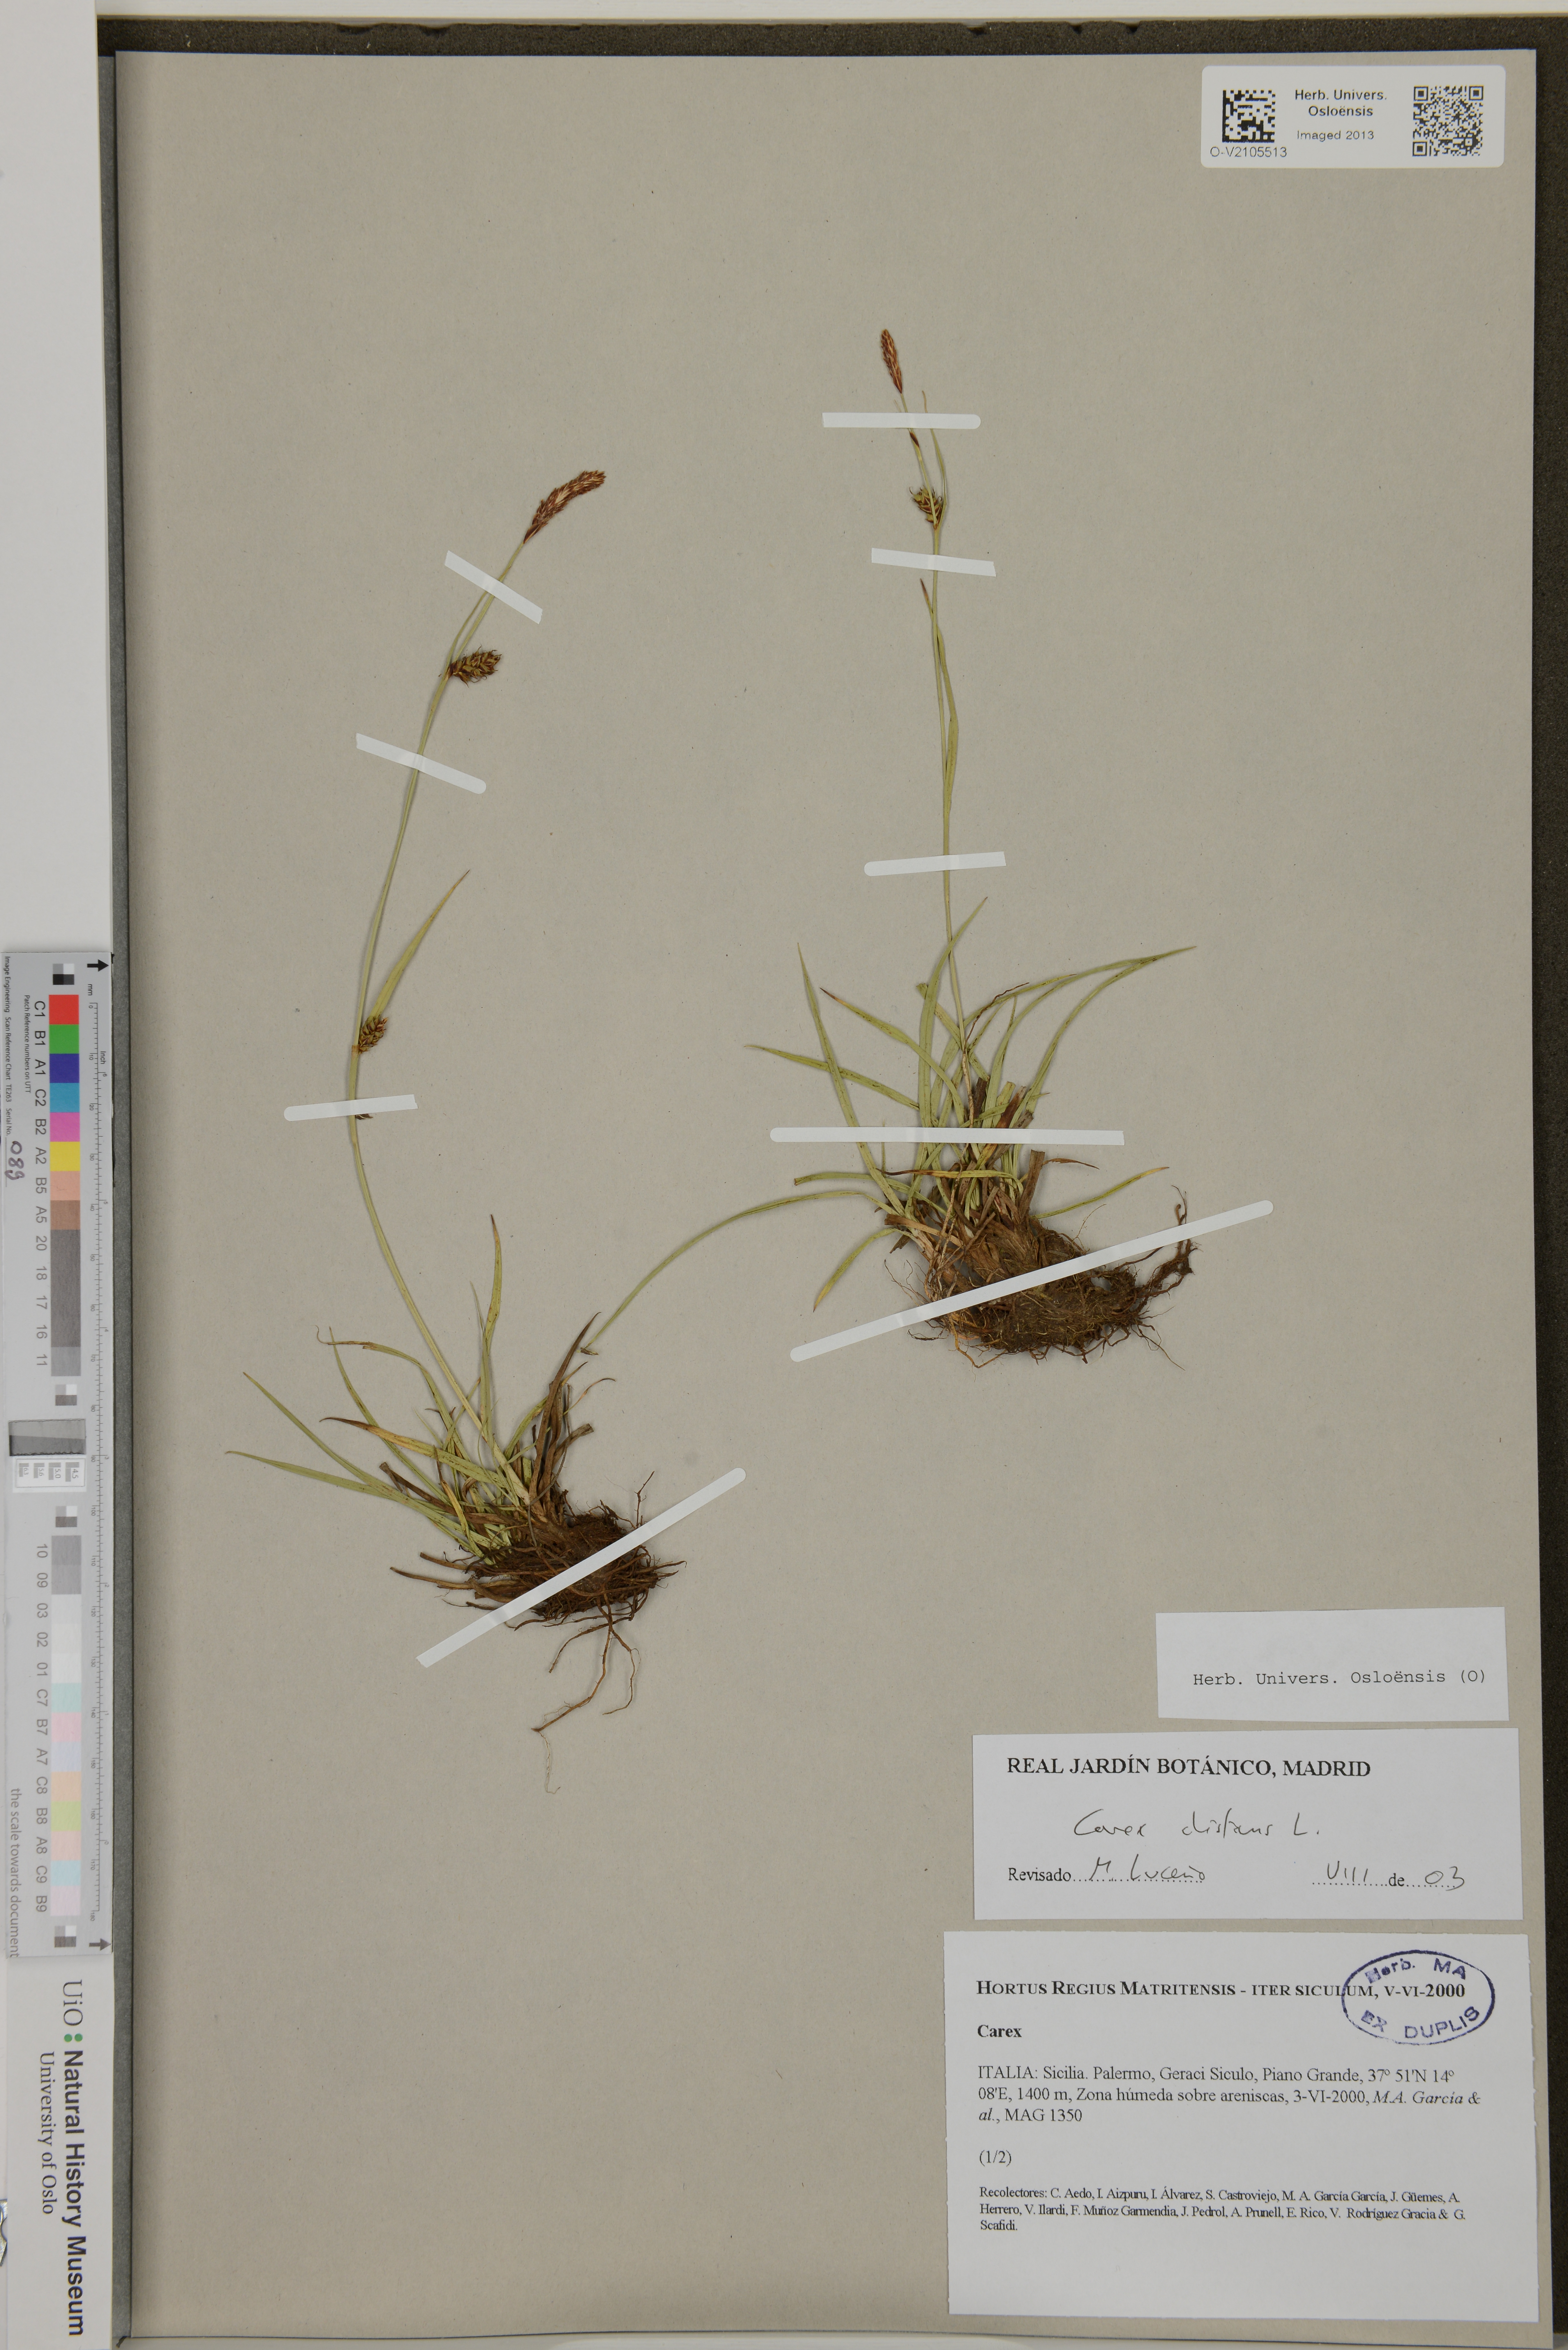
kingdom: Plantae
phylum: Tracheophyta
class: Liliopsida
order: Poales
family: Cyperaceae
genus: Carex
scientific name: Carex distans
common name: Distant sedge
